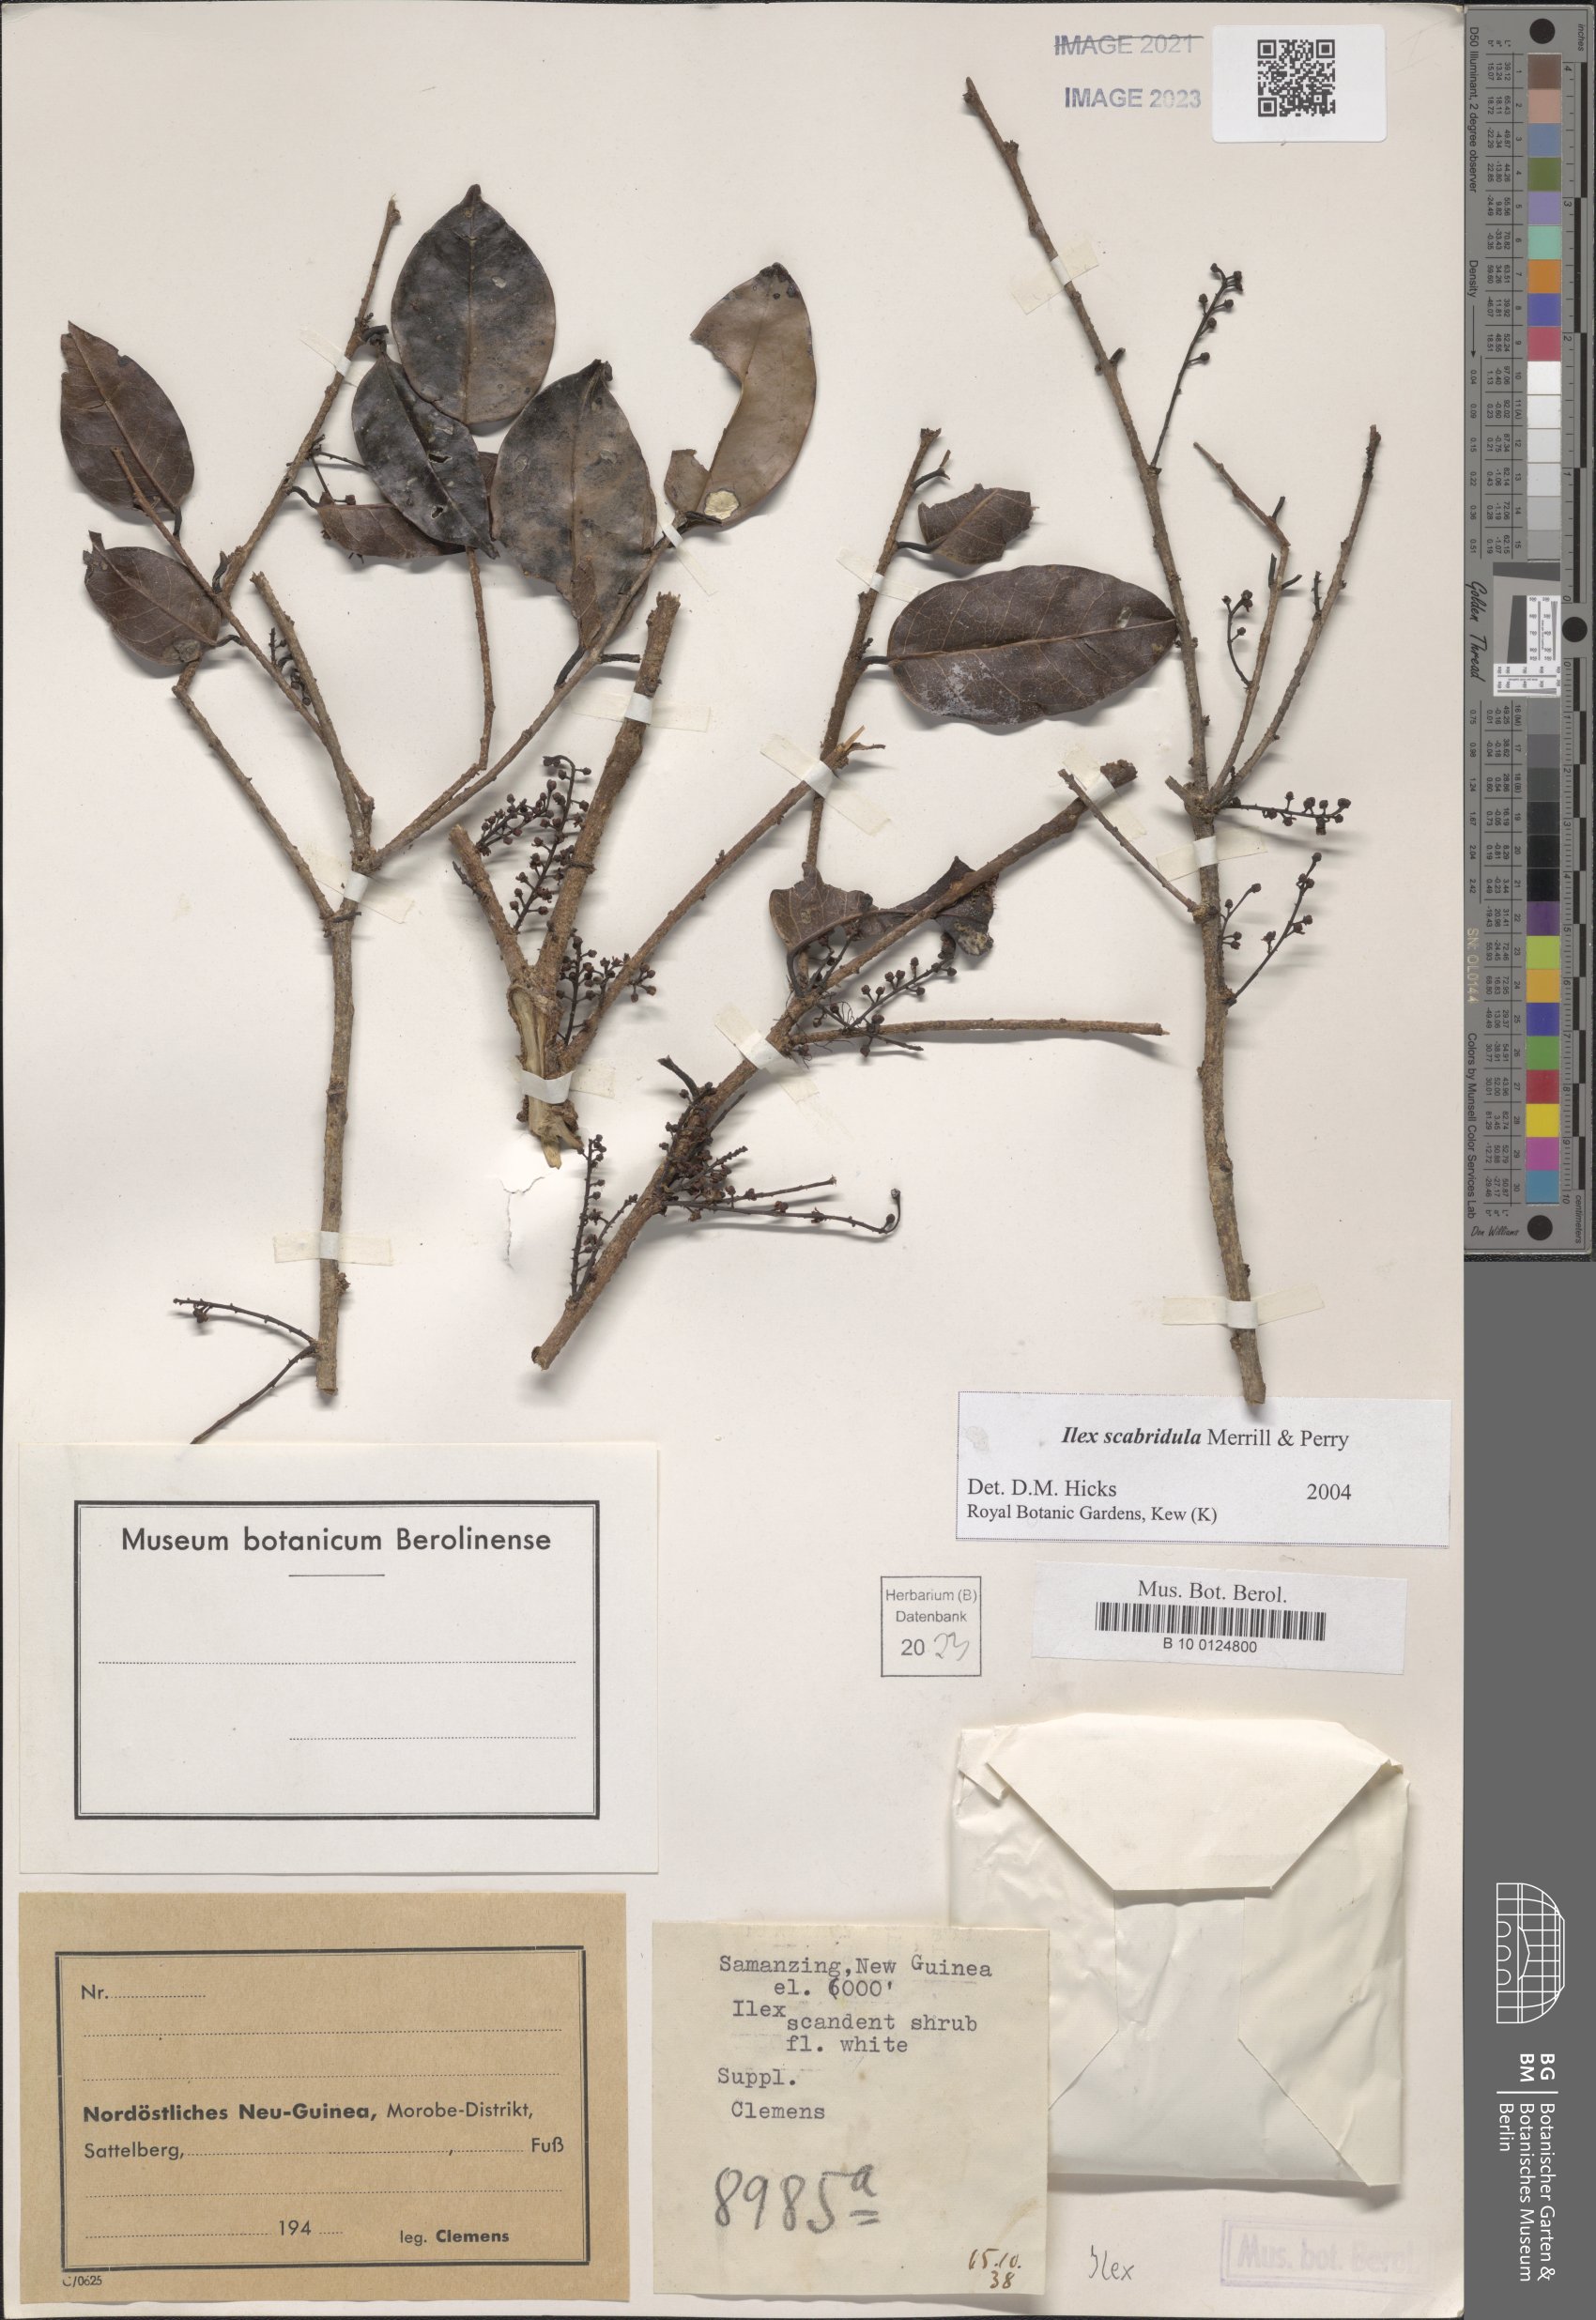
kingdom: Plantae
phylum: Tracheophyta
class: Magnoliopsida
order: Aquifoliales
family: Aquifoliaceae
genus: Ilex
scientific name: Ilex scabridula
